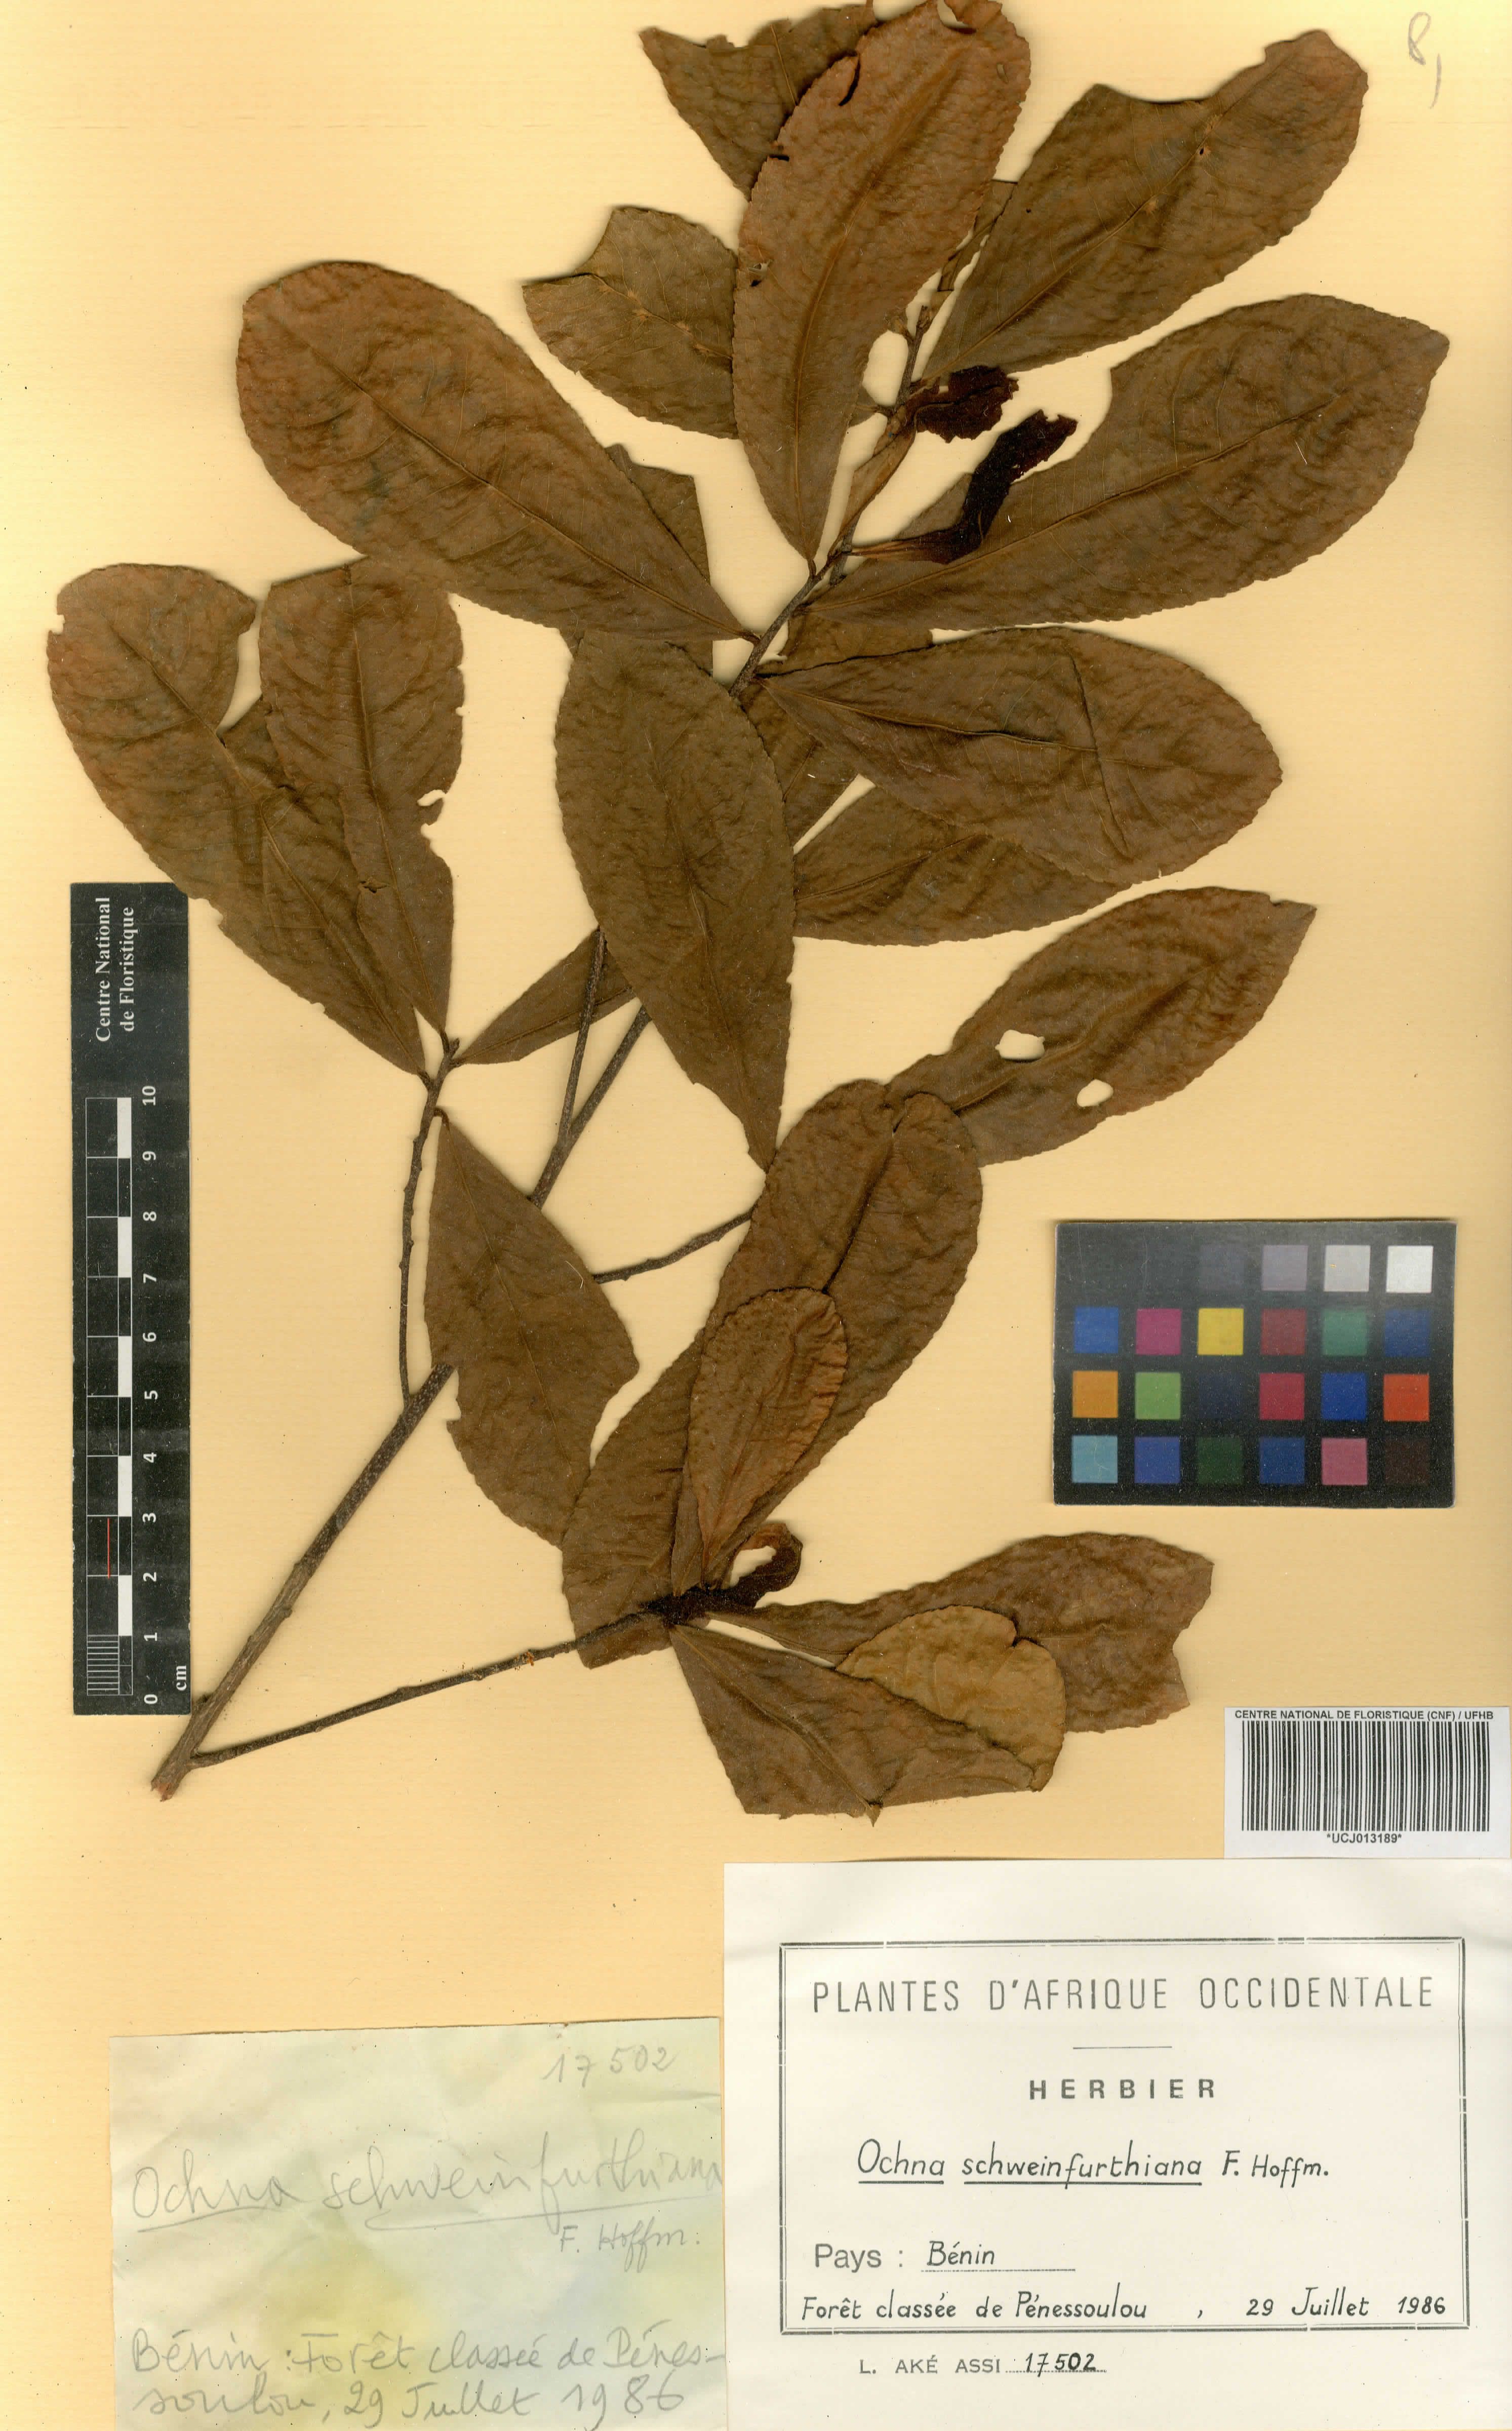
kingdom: Plantae
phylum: Tracheophyta
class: Magnoliopsida
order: Malpighiales
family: Ochnaceae
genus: Ochna
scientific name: Ochna schweinfurthiana
